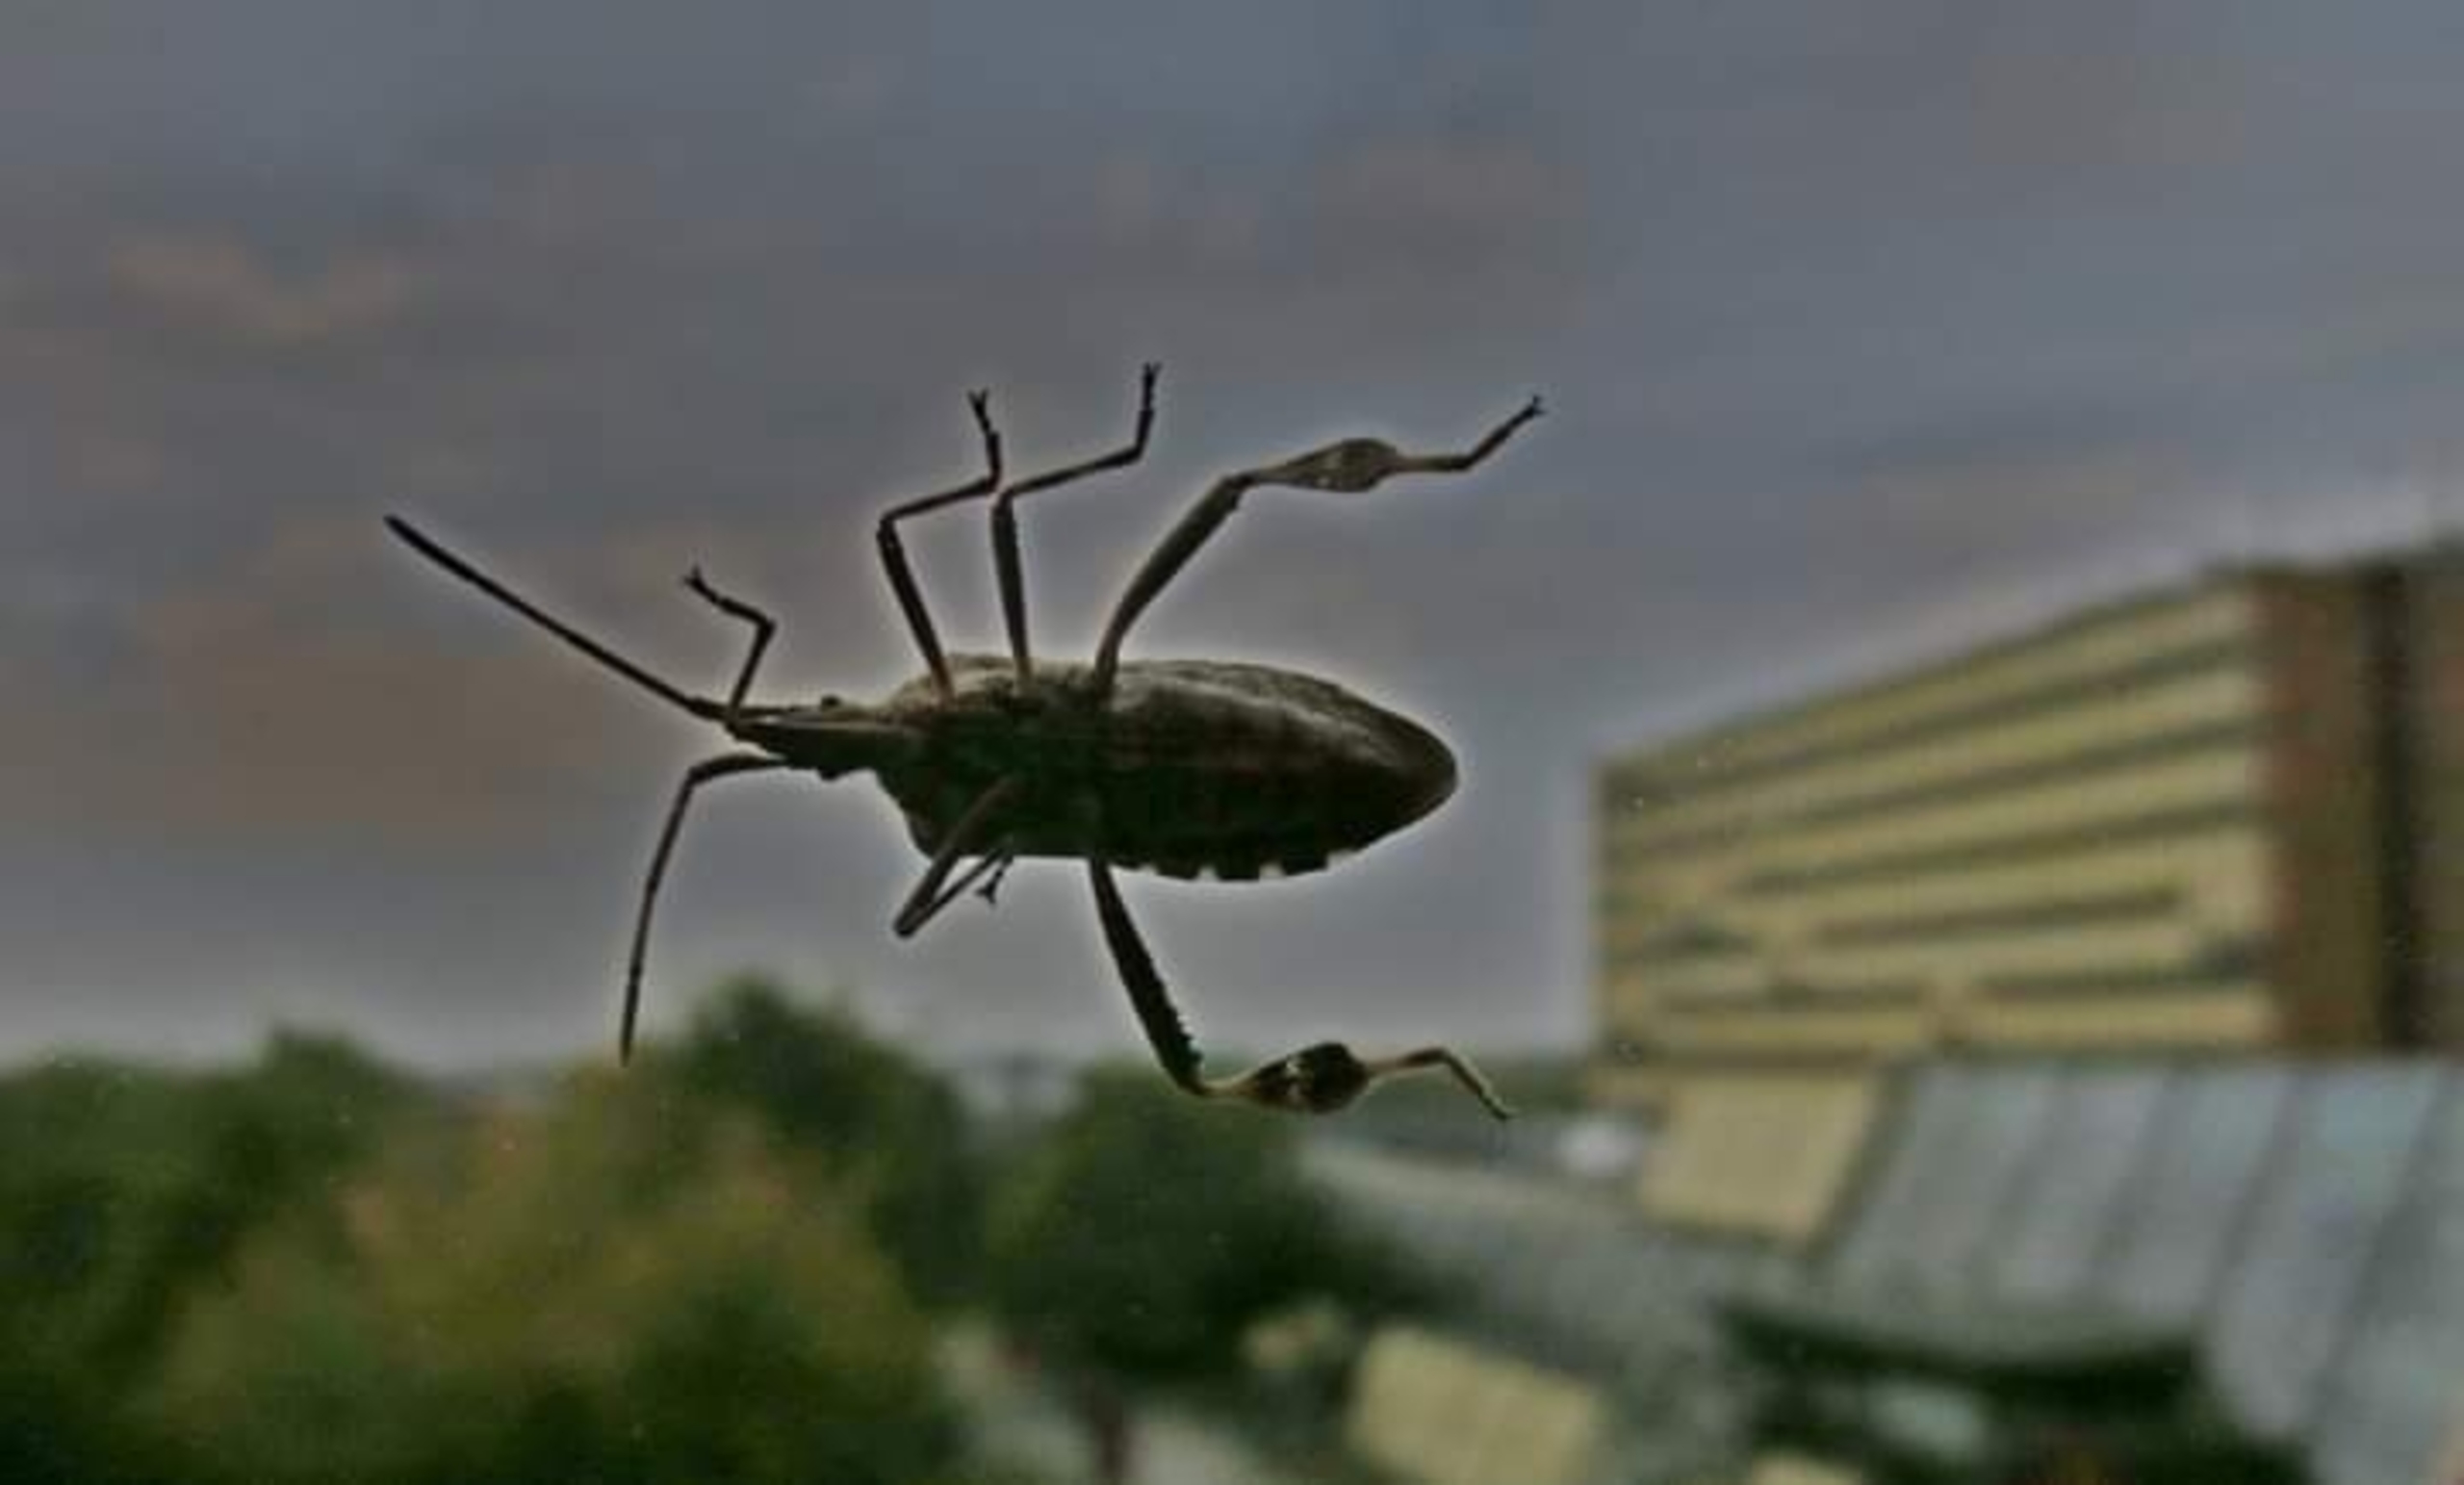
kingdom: Animalia
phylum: Arthropoda
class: Insecta
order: Hemiptera
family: Coreidae
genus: Leptoglossus
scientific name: Leptoglossus occidentalis
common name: Amerikansk fyrretæge
